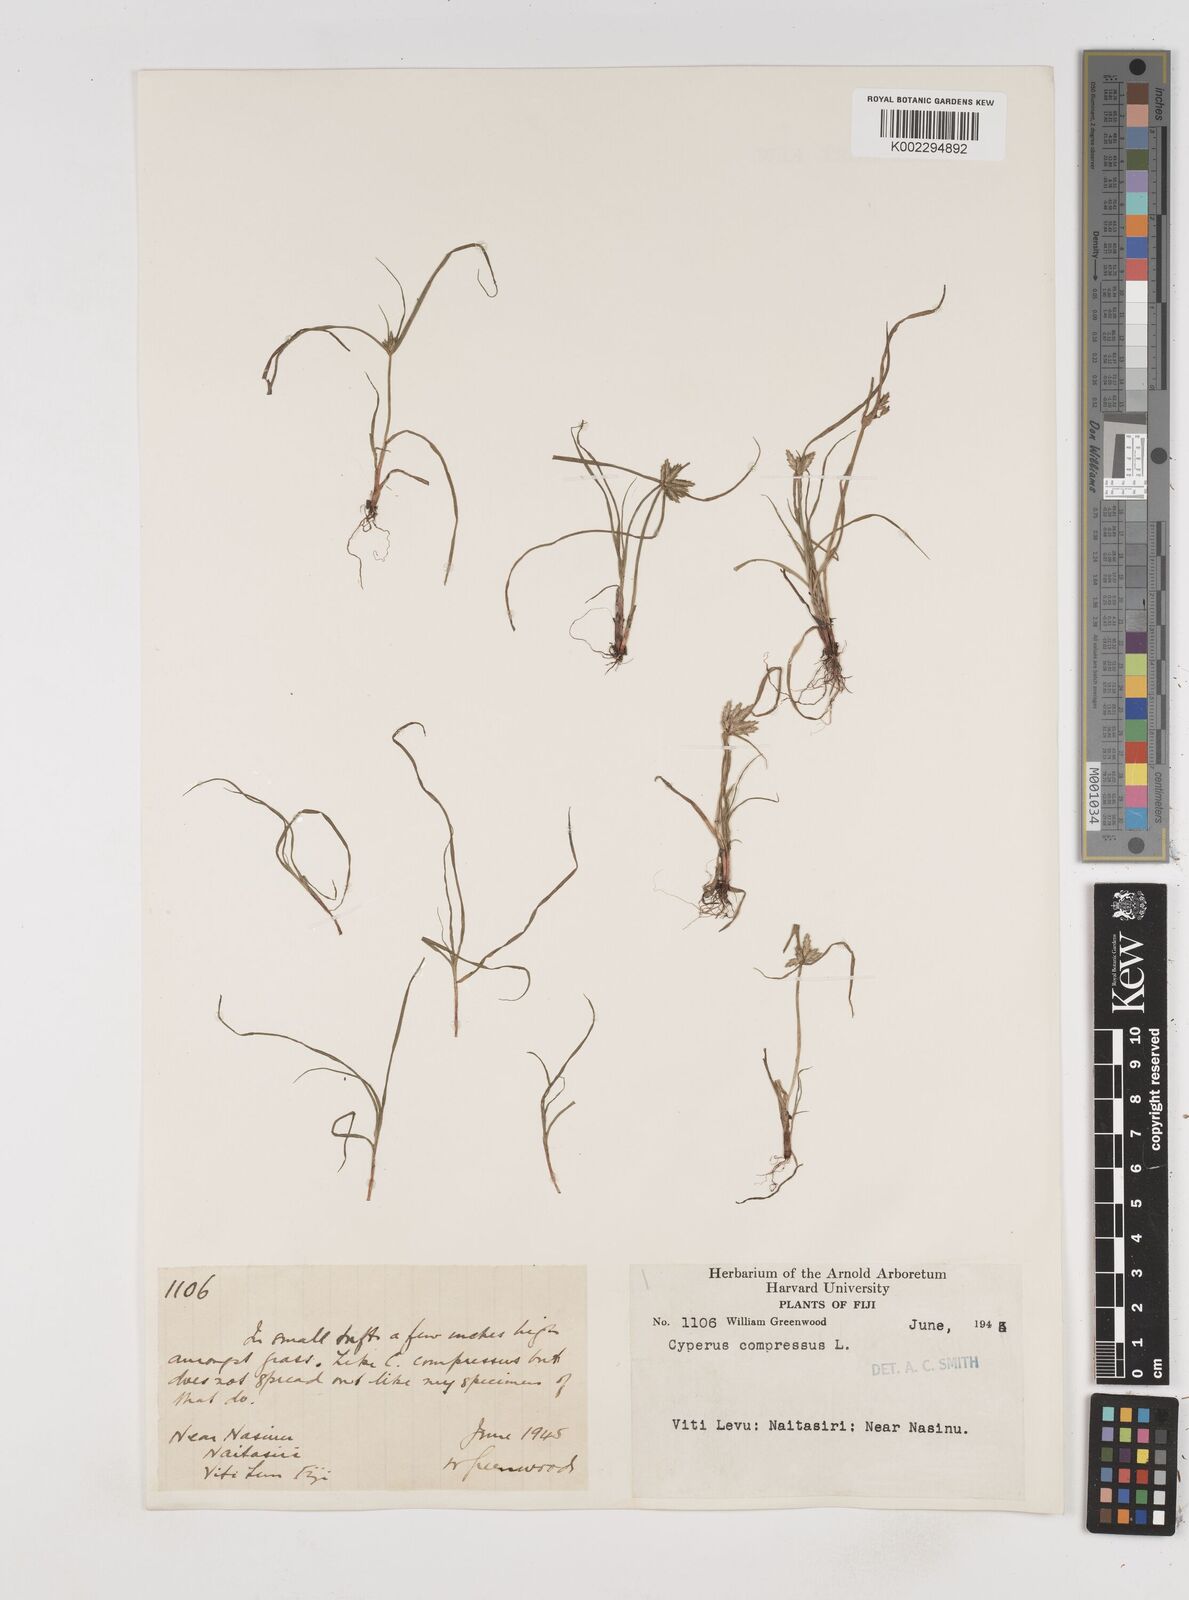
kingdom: Plantae
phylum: Tracheophyta
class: Liliopsida
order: Poales
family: Cyperaceae
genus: Cyperus
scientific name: Cyperus compressus
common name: Poorland flatsedge
